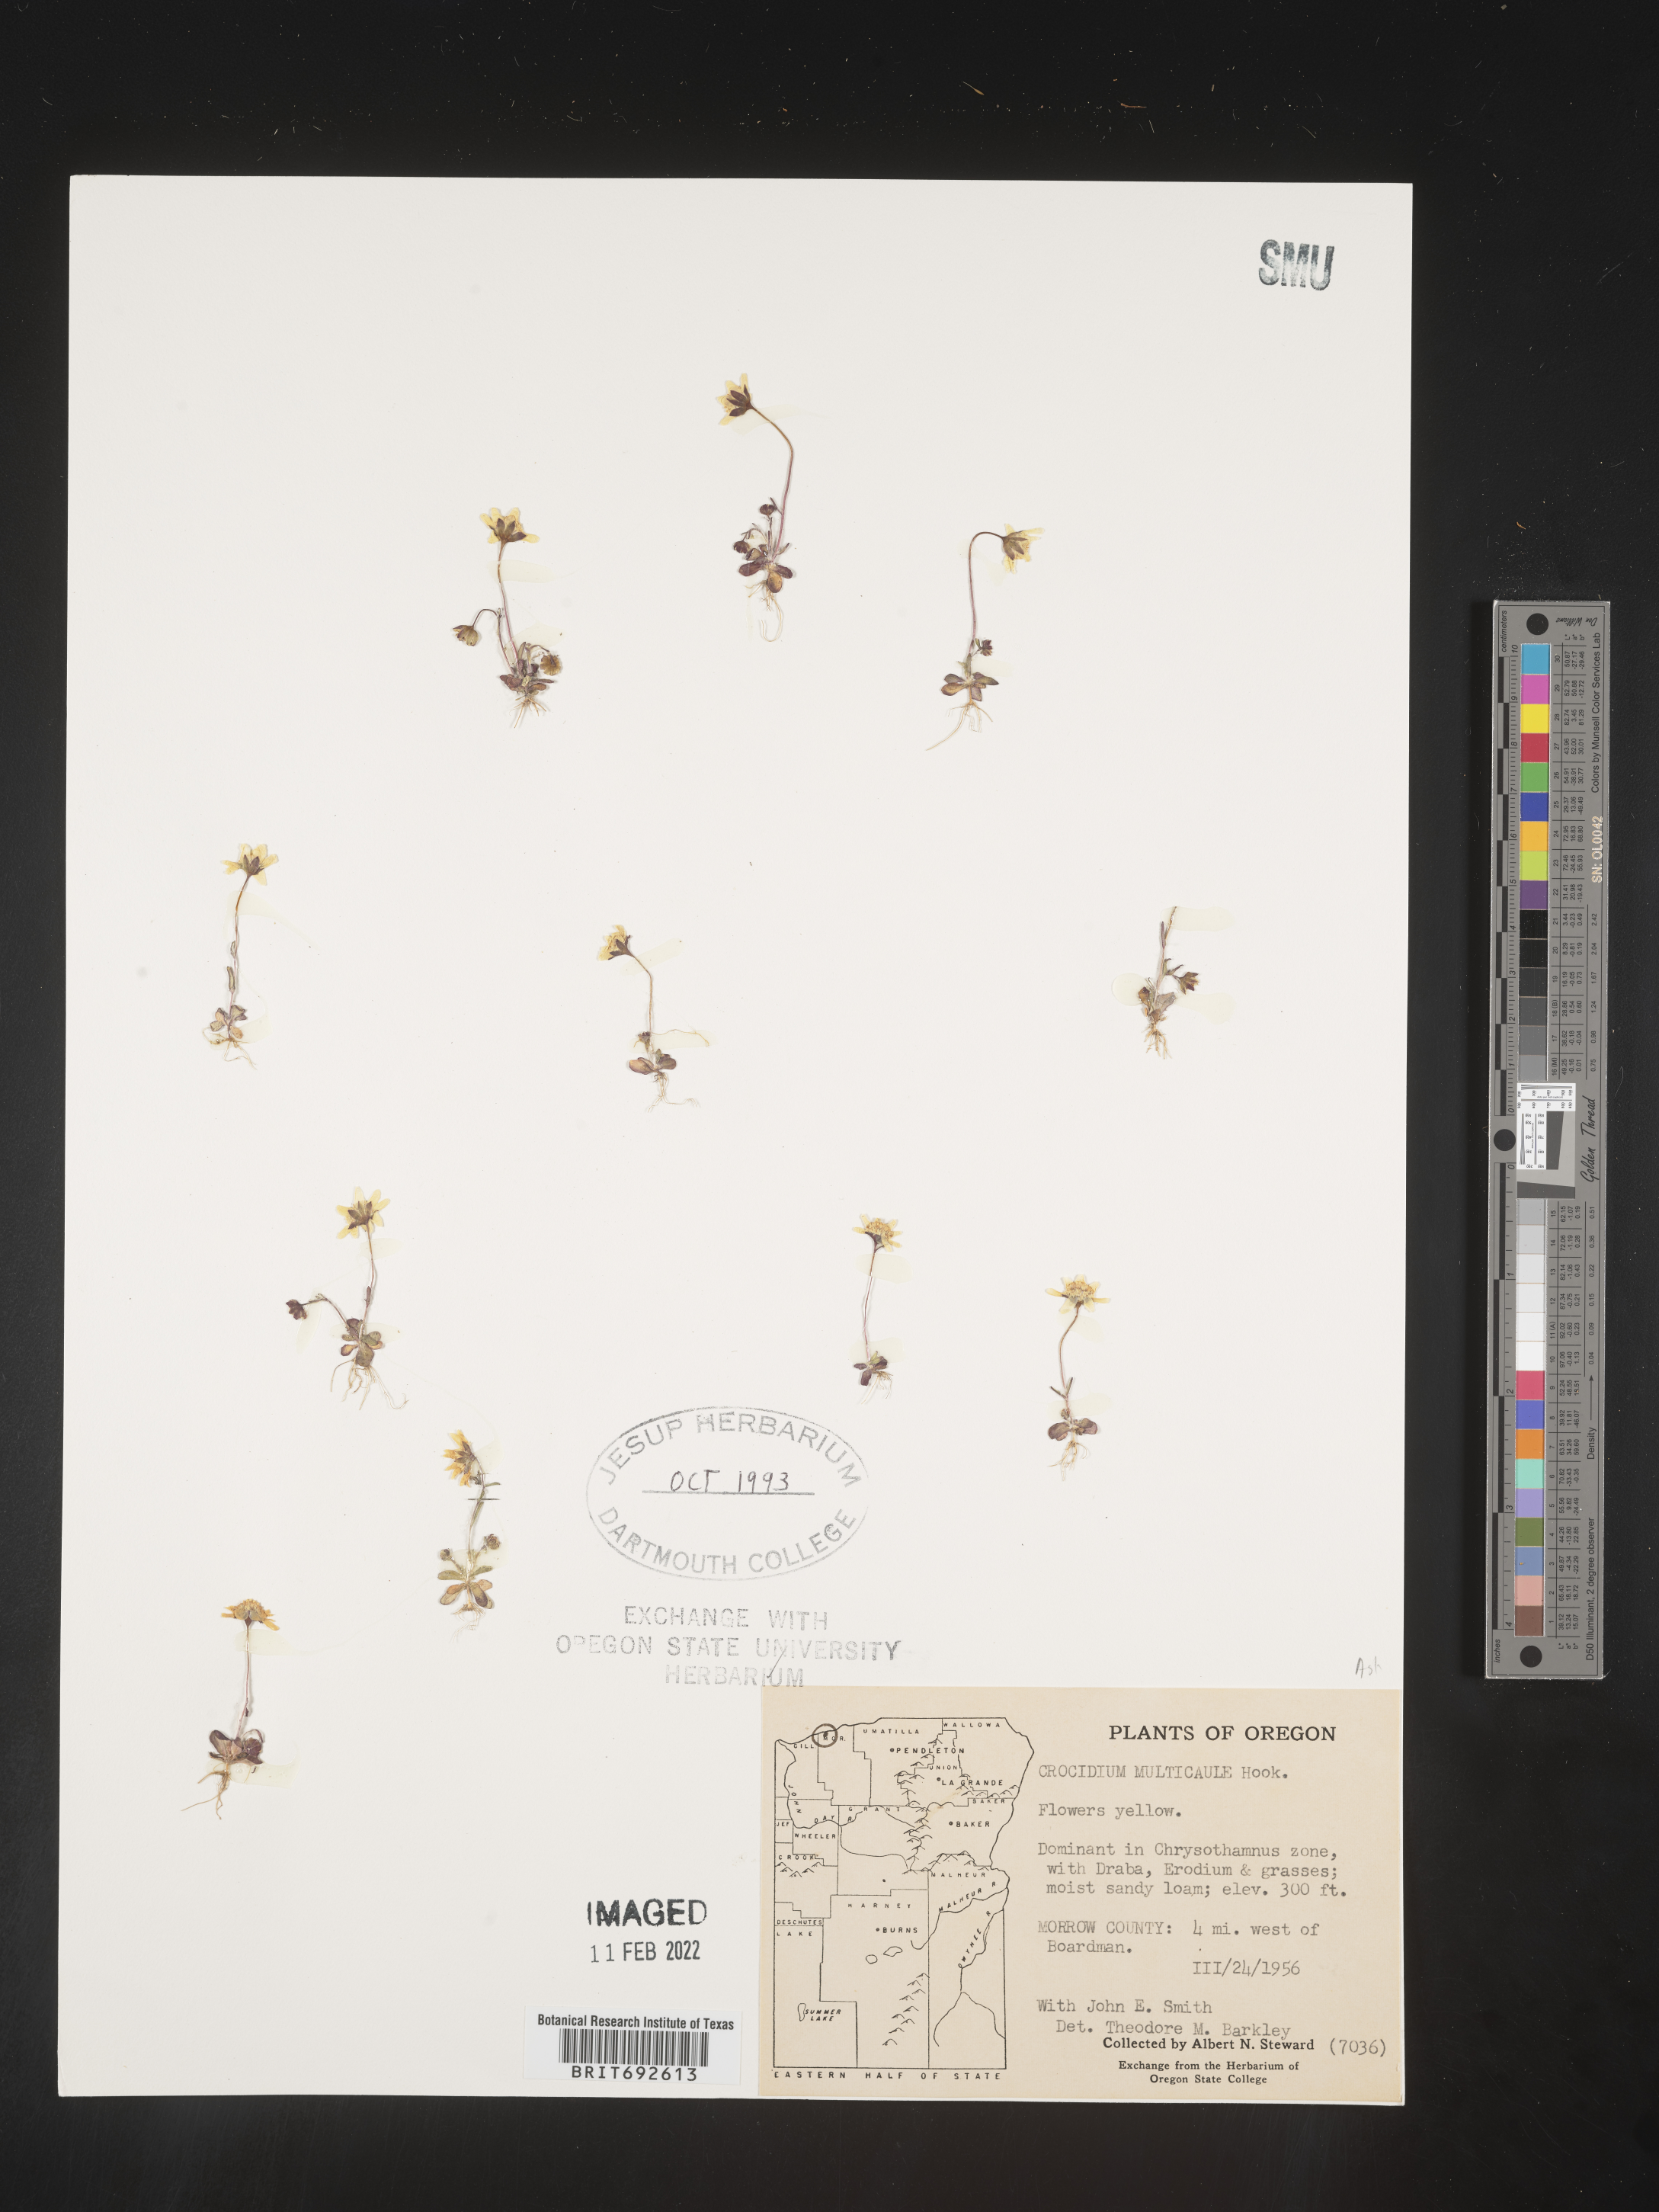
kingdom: Plantae
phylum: Tracheophyta
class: Magnoliopsida
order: Asterales
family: Asteraceae
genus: Crocidium
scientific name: Crocidium
